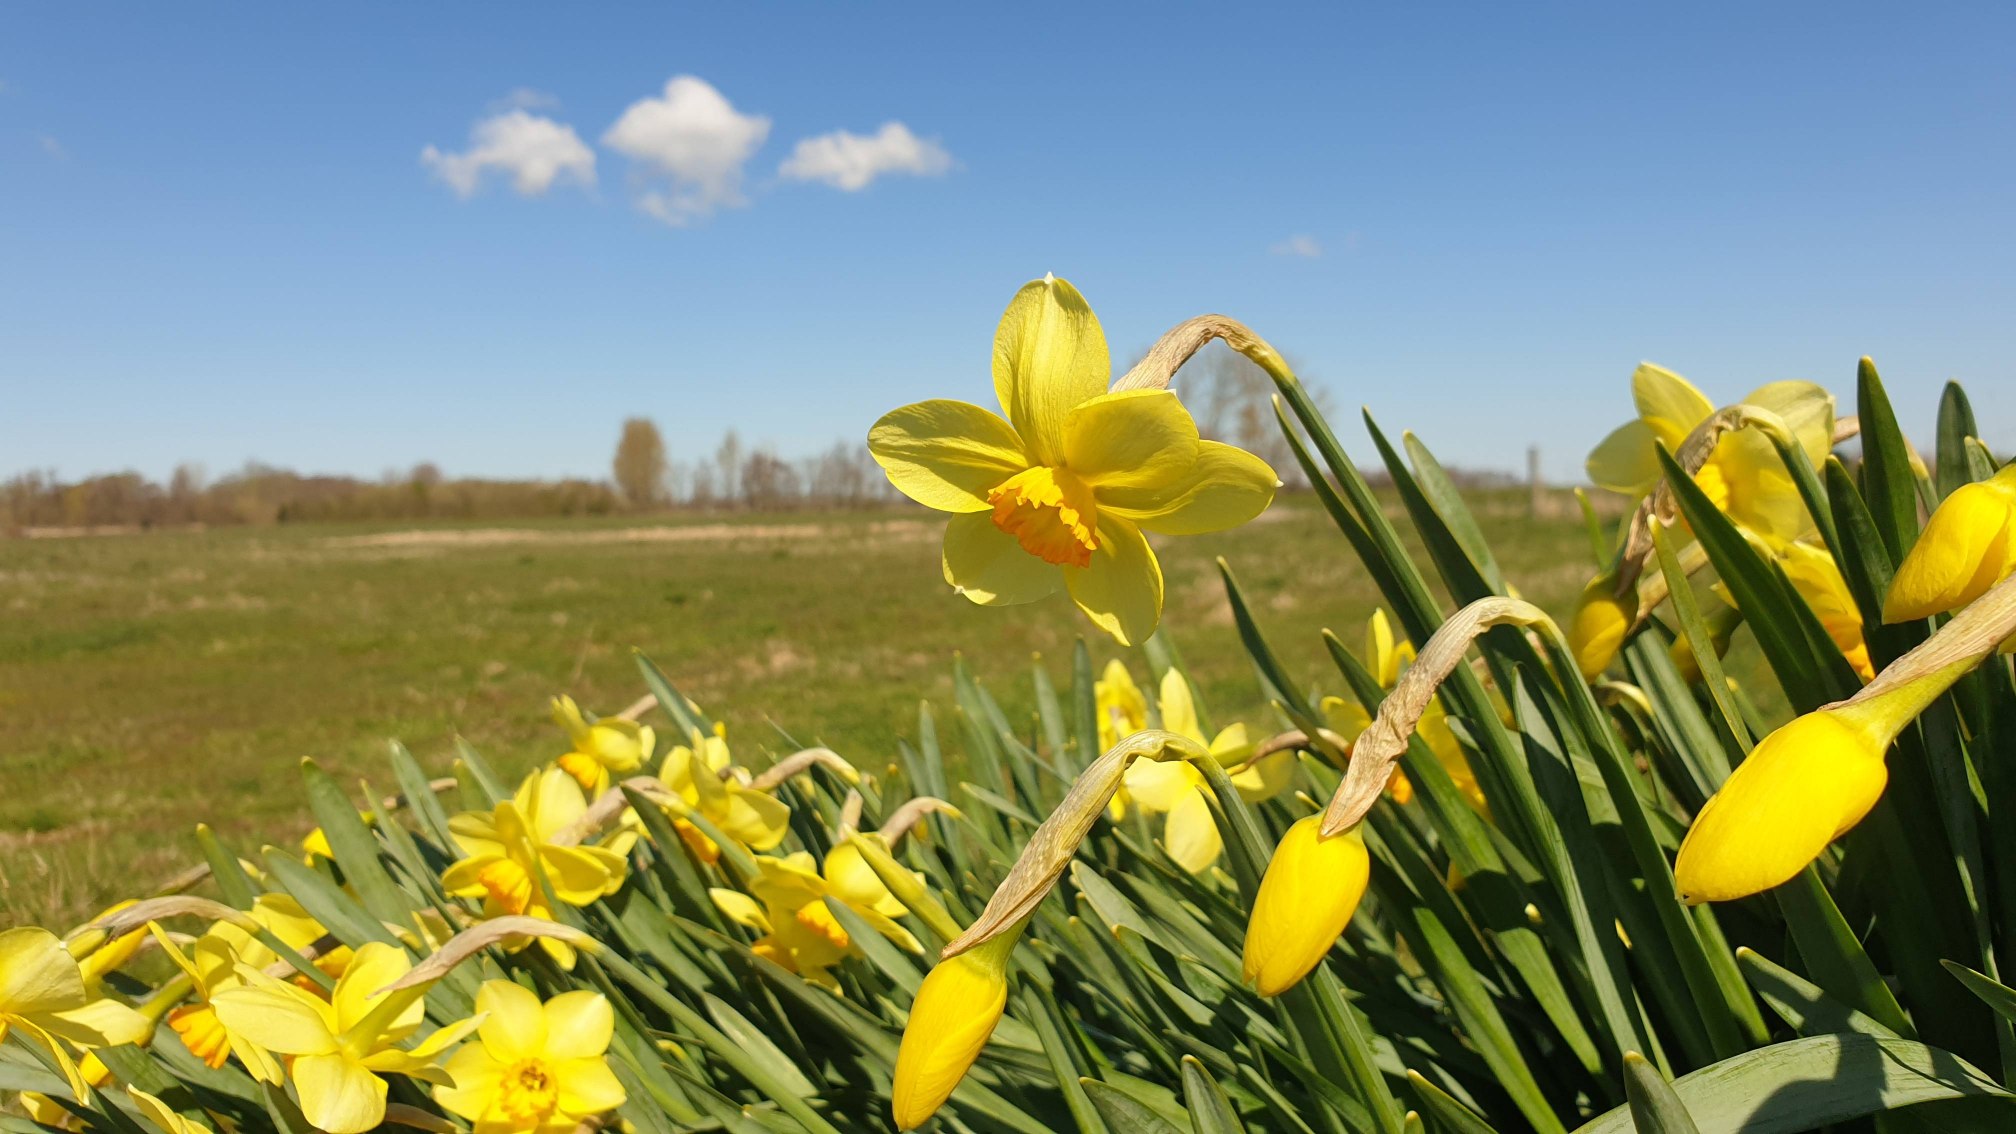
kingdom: Plantae
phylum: Tracheophyta
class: Liliopsida
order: Asparagales
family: Amaryllidaceae
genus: Narcissus
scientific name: Narcissus pseudonarcissus
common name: Påskelilje
